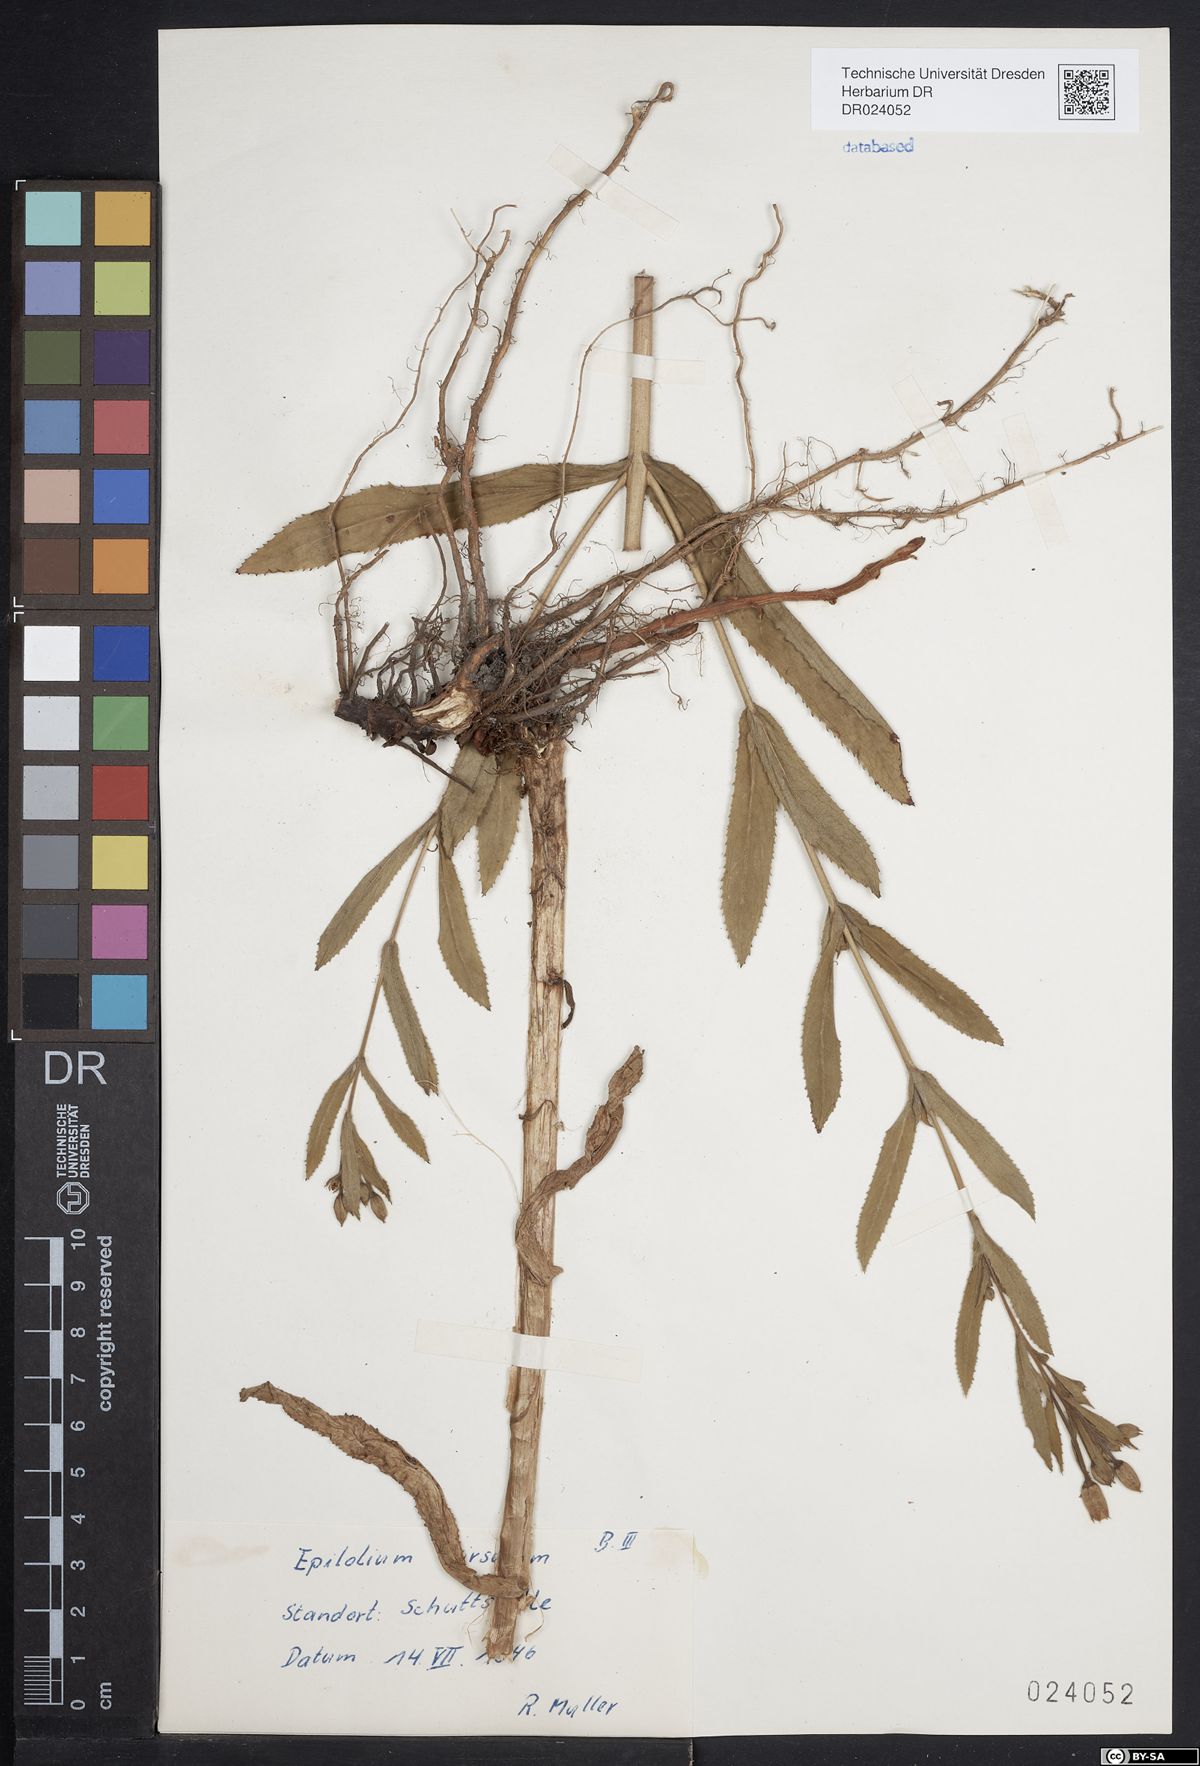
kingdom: Plantae
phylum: Tracheophyta
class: Magnoliopsida
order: Myrtales
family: Onagraceae
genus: Epilobium
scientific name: Epilobium hirsutum
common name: Great willowherb
